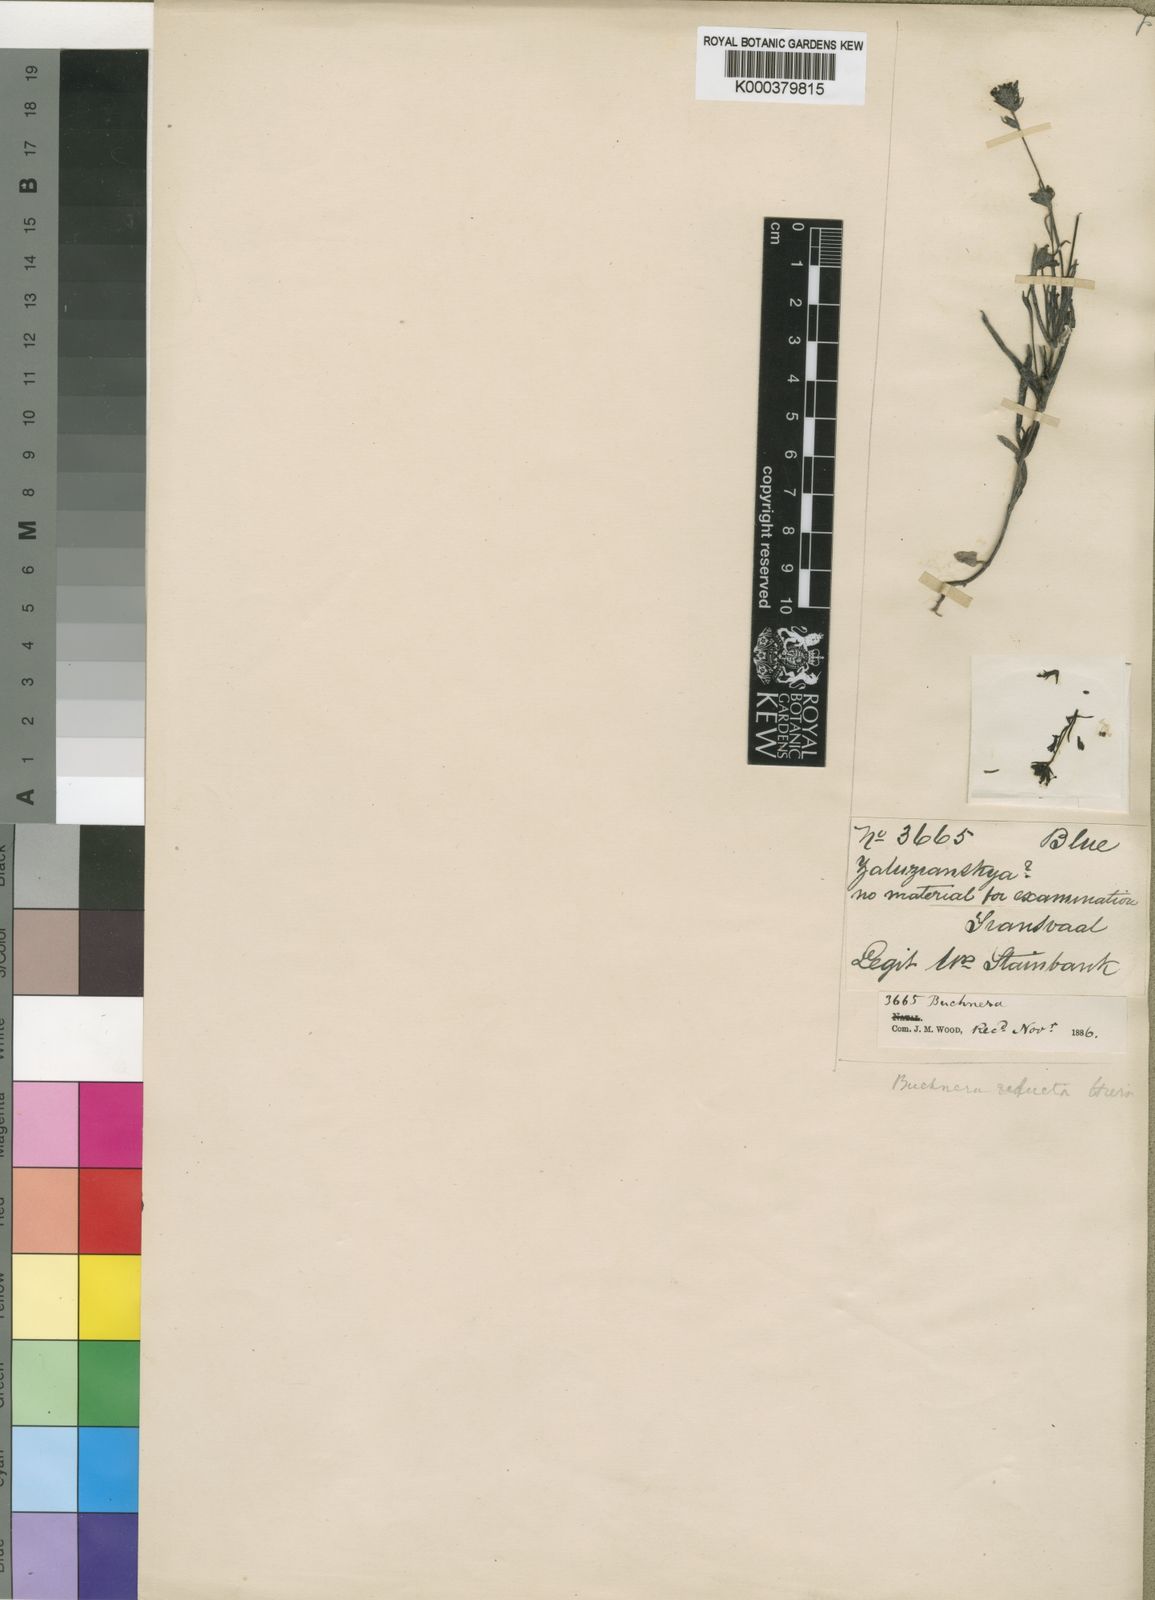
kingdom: Plantae
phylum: Tracheophyta
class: Magnoliopsida
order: Lamiales
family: Orobanchaceae
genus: Buchnera
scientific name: Buchnera reducta
